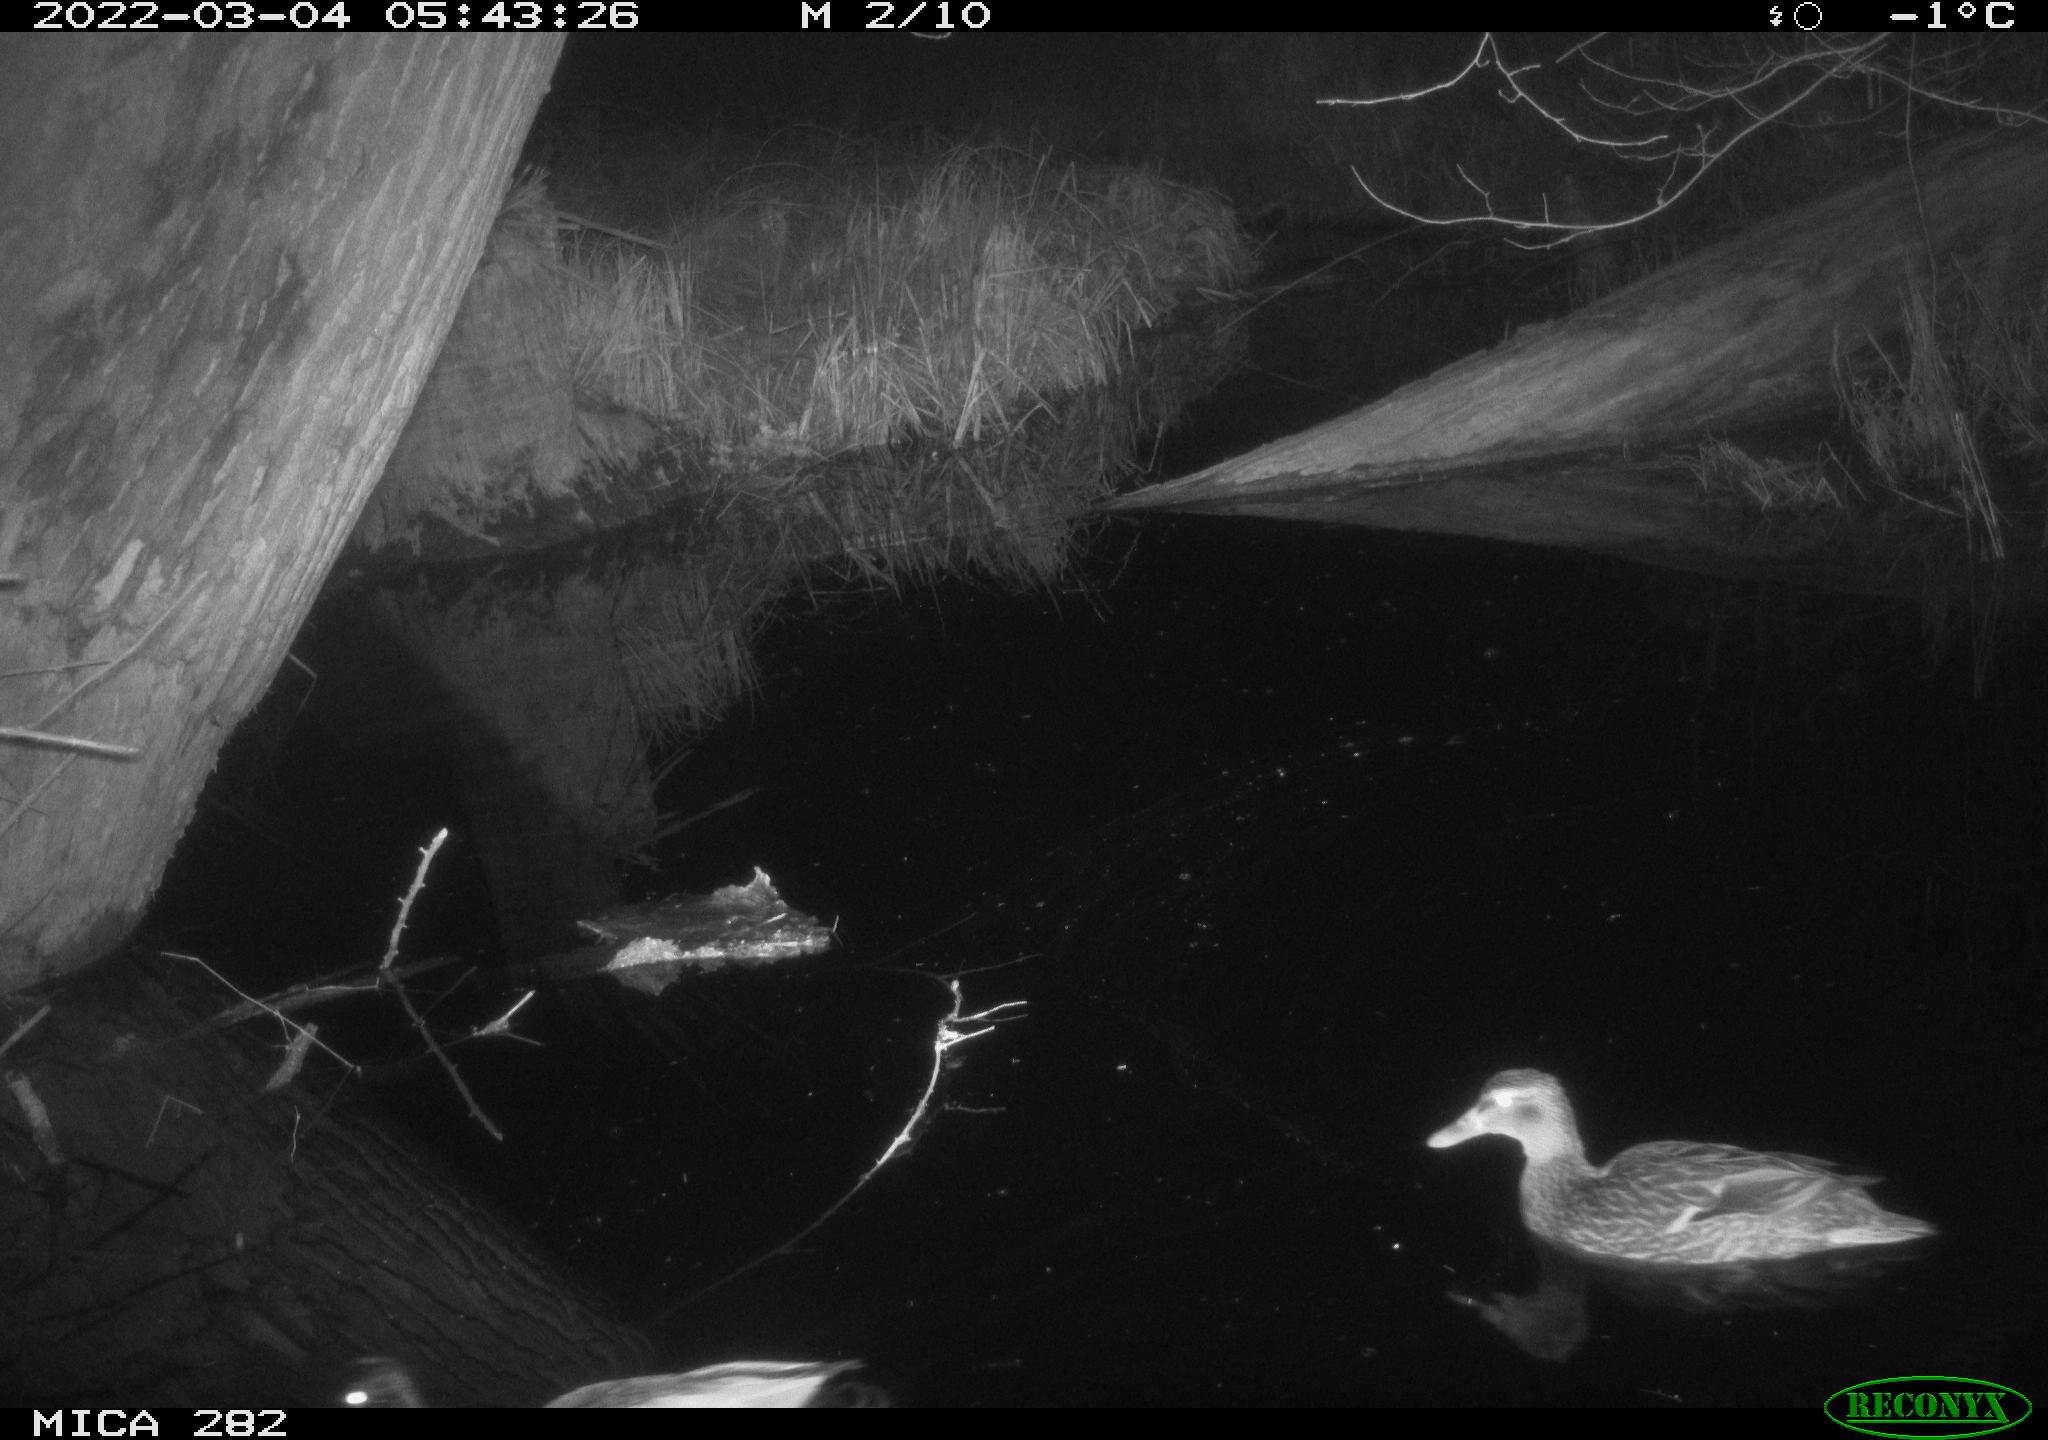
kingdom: Animalia
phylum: Chordata
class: Aves
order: Anseriformes
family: Anatidae
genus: Anas
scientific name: Anas platyrhynchos
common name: Mallard
